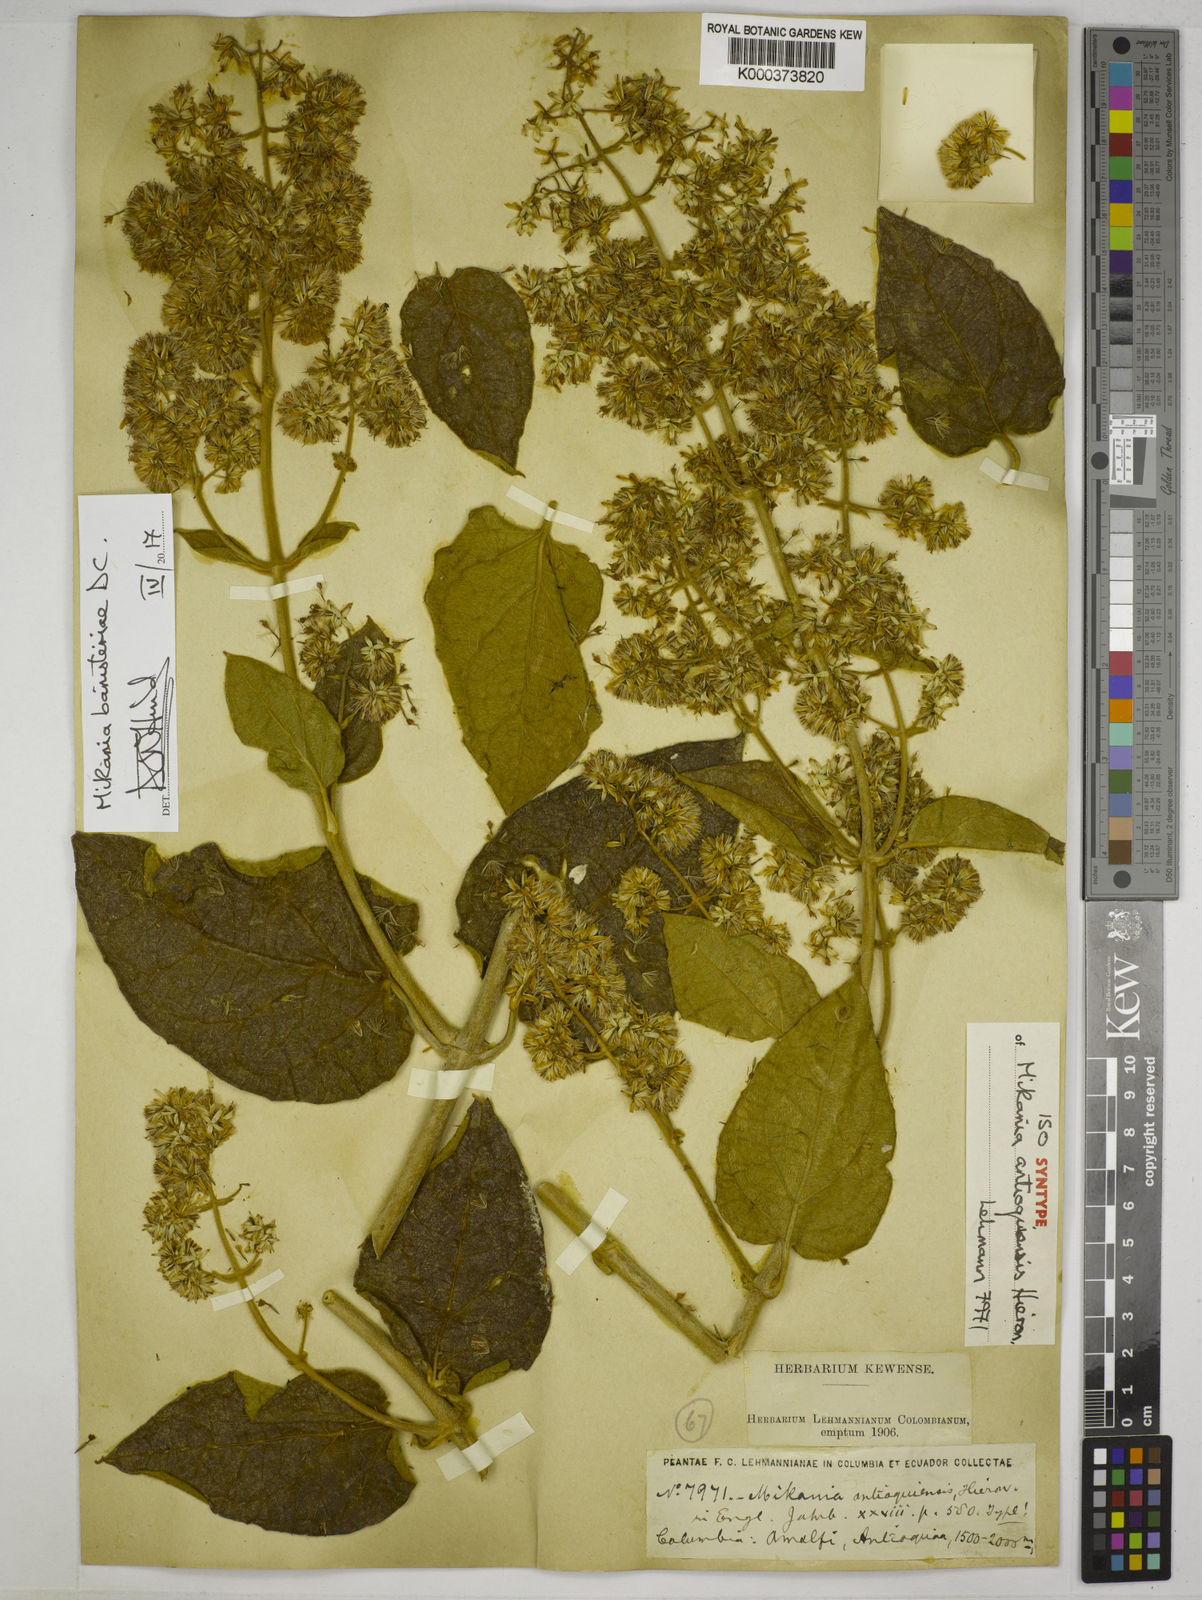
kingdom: Plantae
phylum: Tracheophyta
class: Magnoliopsida
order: Asterales
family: Asteraceae
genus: Mikania
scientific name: Mikania banisteriae
